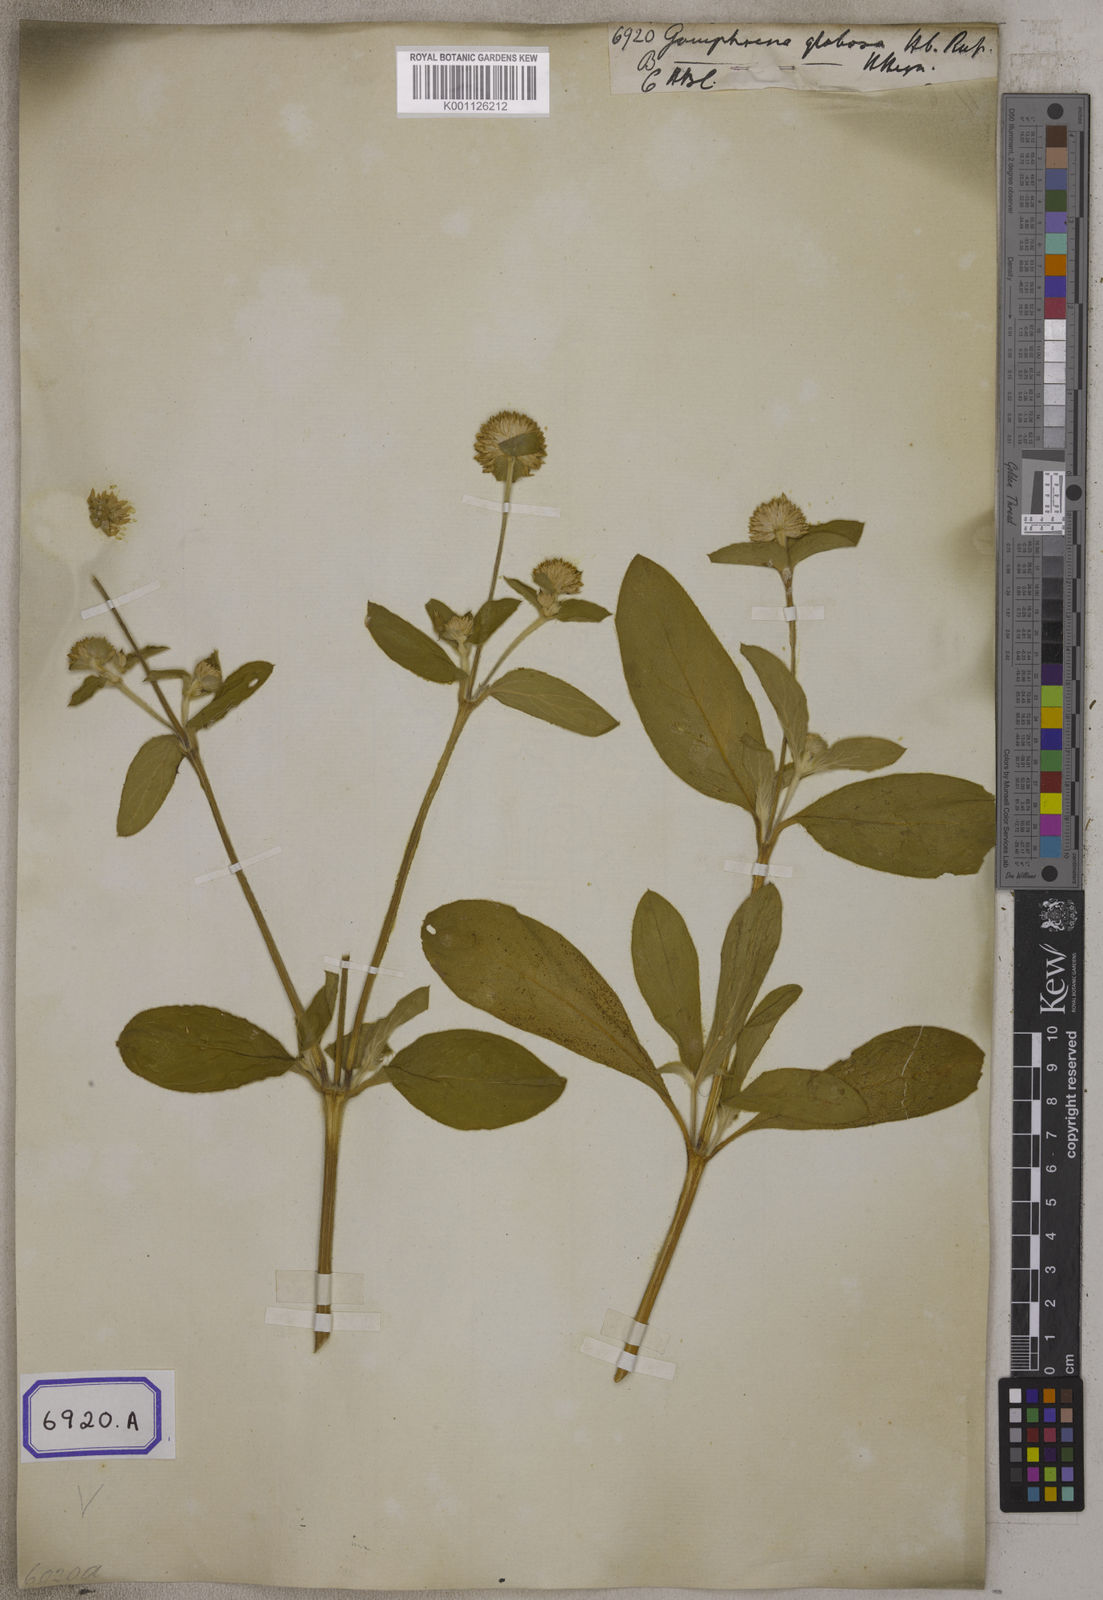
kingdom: Plantae
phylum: Tracheophyta
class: Magnoliopsida
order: Caryophyllales
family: Amaranthaceae
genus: Gomphrena
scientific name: Gomphrena globosa
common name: Common globe amaranth
